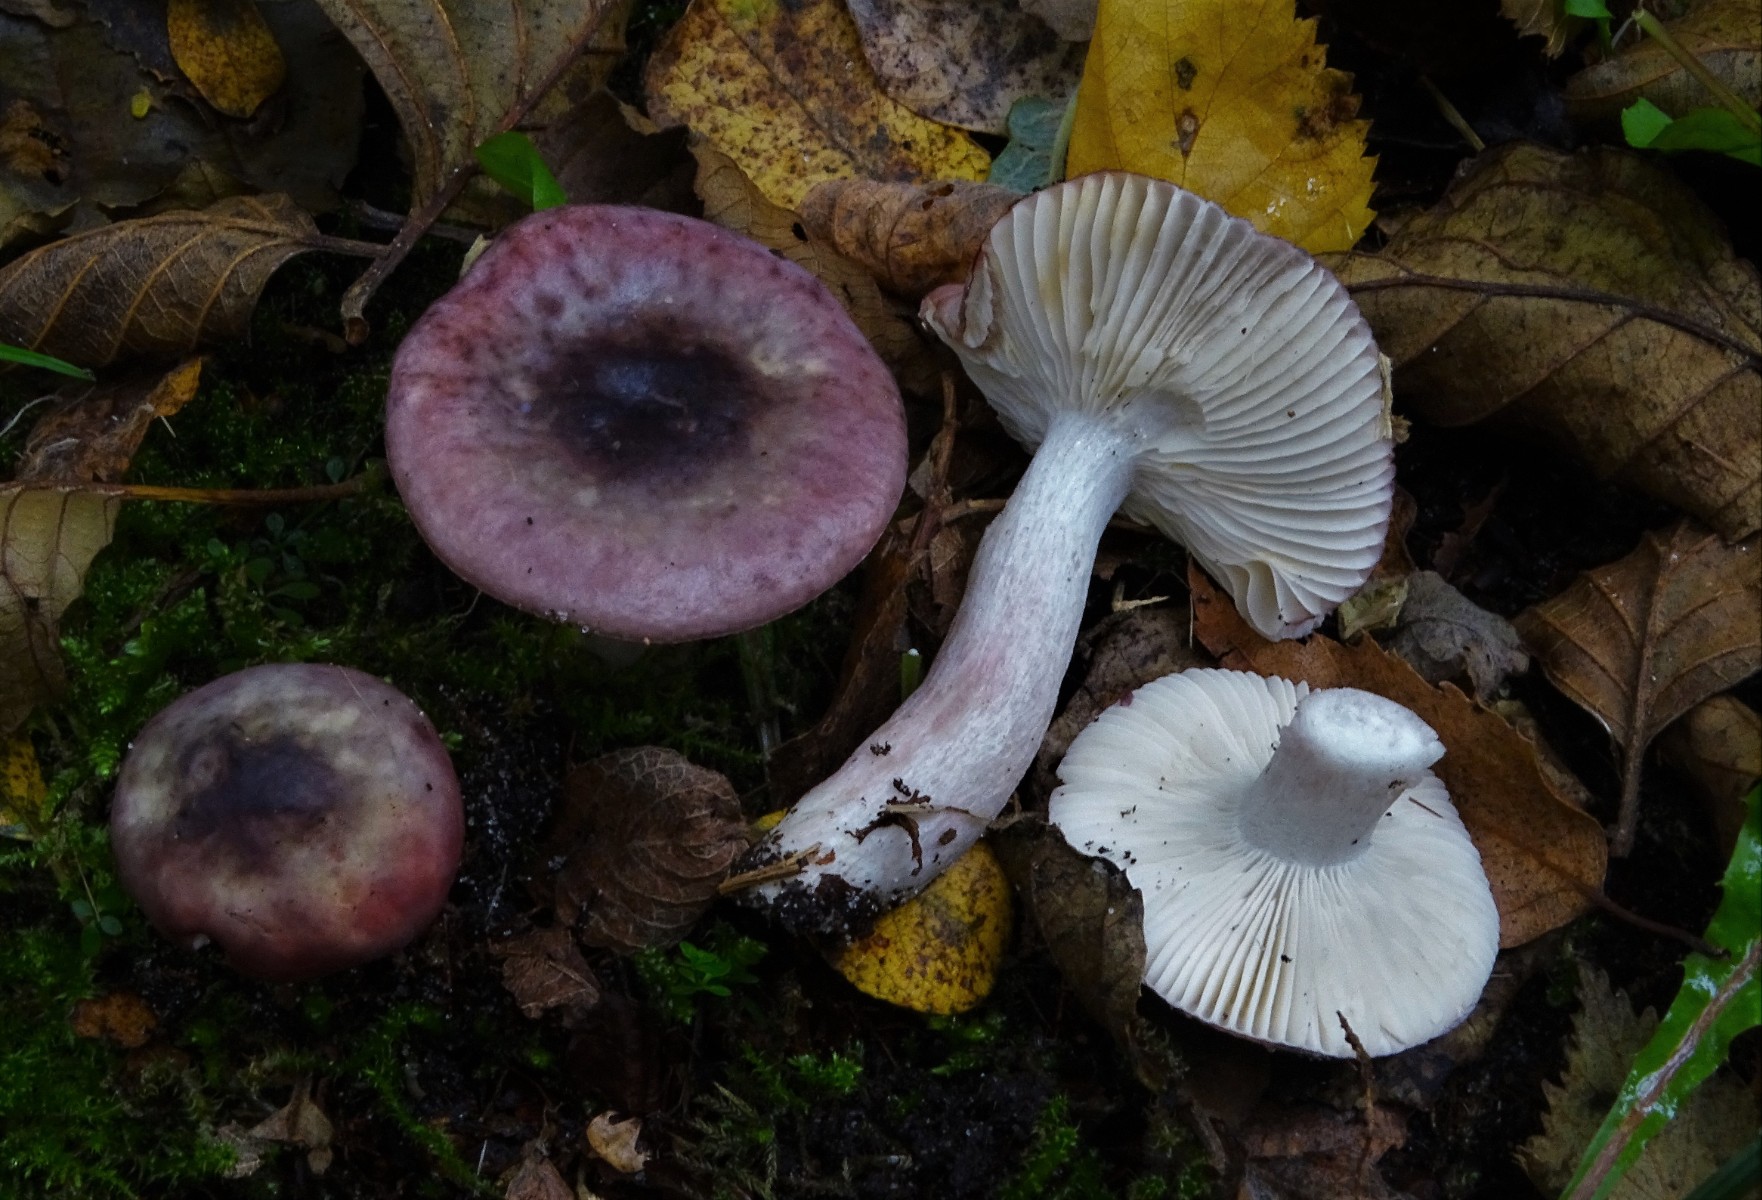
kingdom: Fungi
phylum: Basidiomycota
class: Agaricomycetes
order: Russulales
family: Russulaceae
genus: Russula
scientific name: Russula gracillima
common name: slank skørhat
